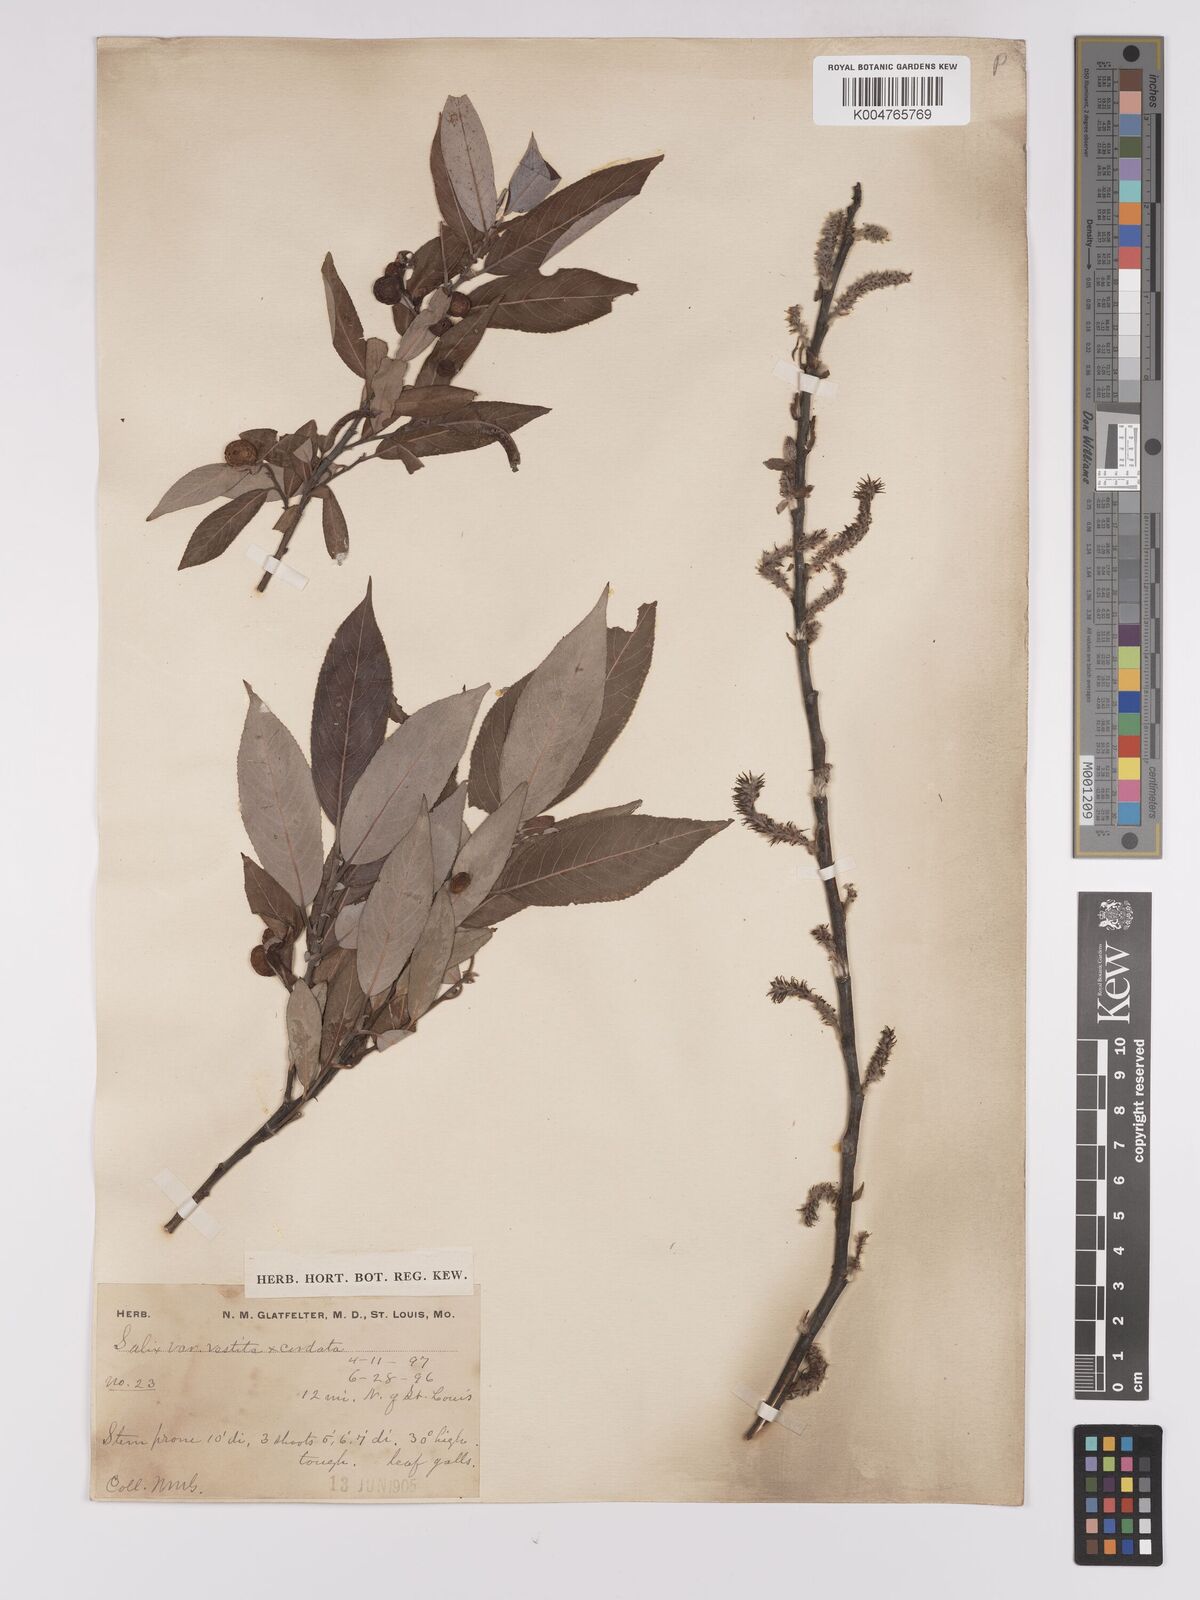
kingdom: Plantae
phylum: Tracheophyta
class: Magnoliopsida
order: Malpighiales
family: Salicaceae
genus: Salix
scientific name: Salix cordata
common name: Heart-leaf willow
